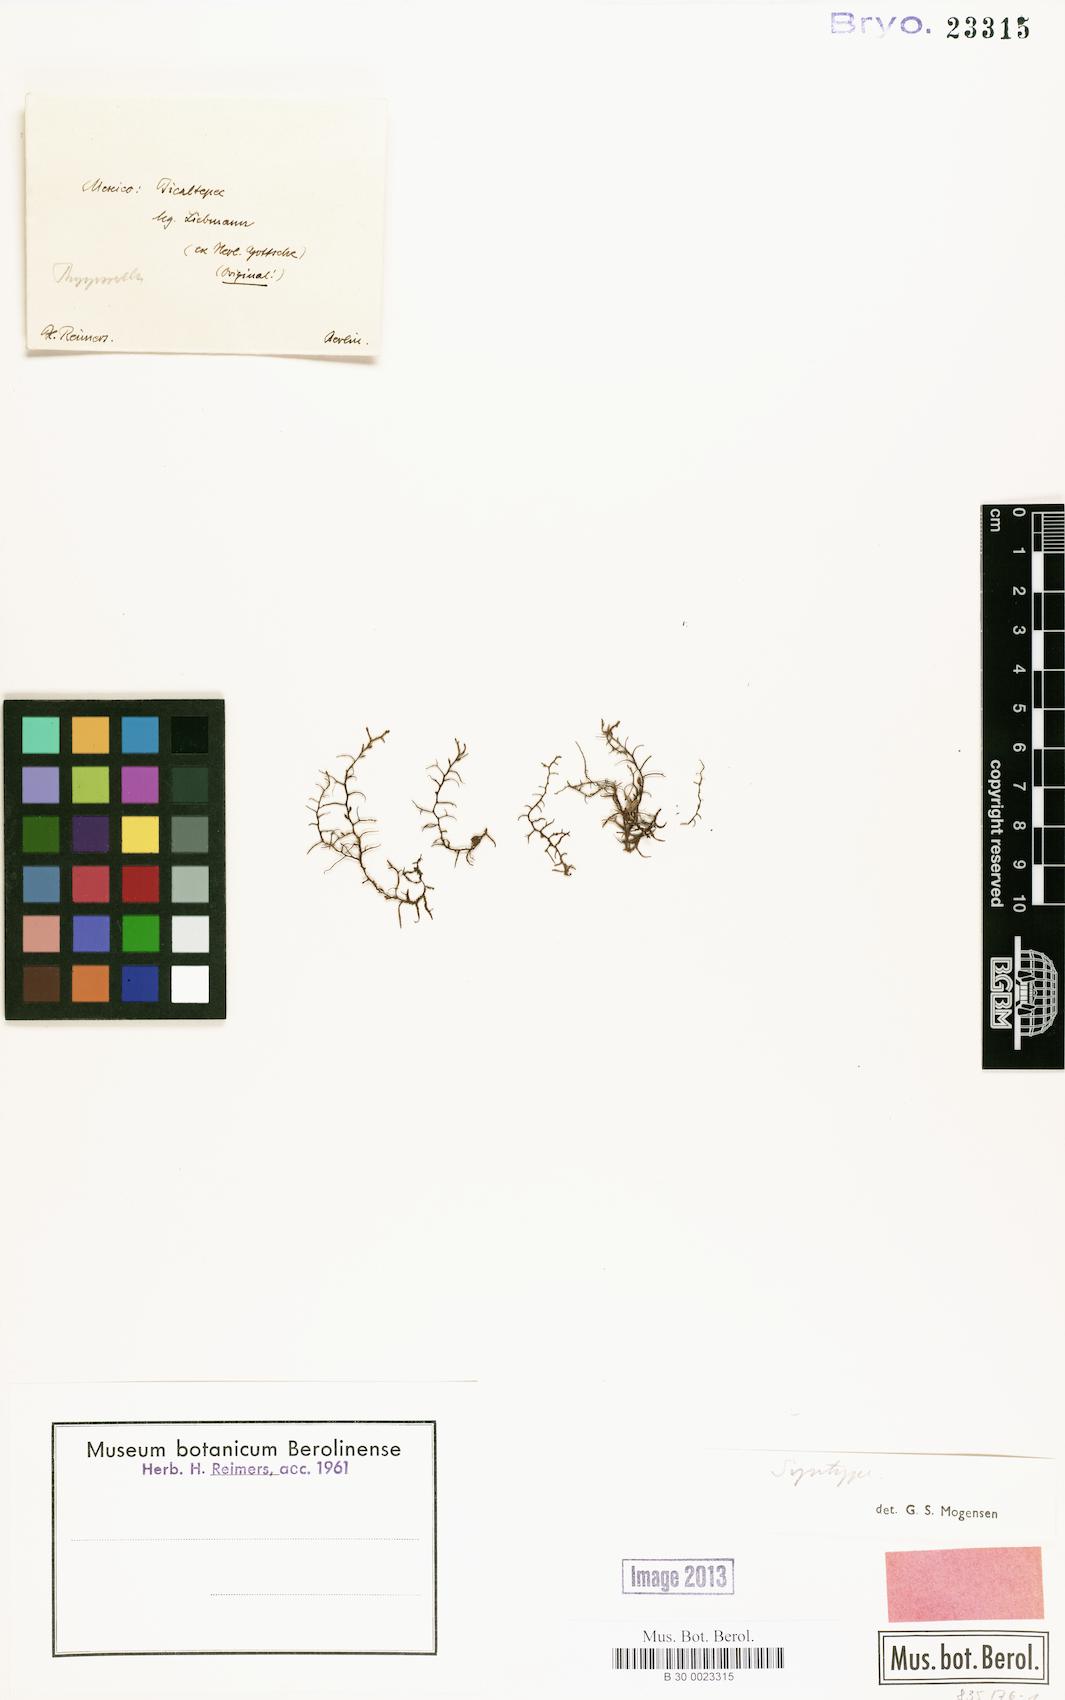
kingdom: Plantae
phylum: Marchantiophyta
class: Jungermanniopsida
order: Porellales
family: Frullaniaceae
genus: Frullania
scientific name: Frullania breuteliana
